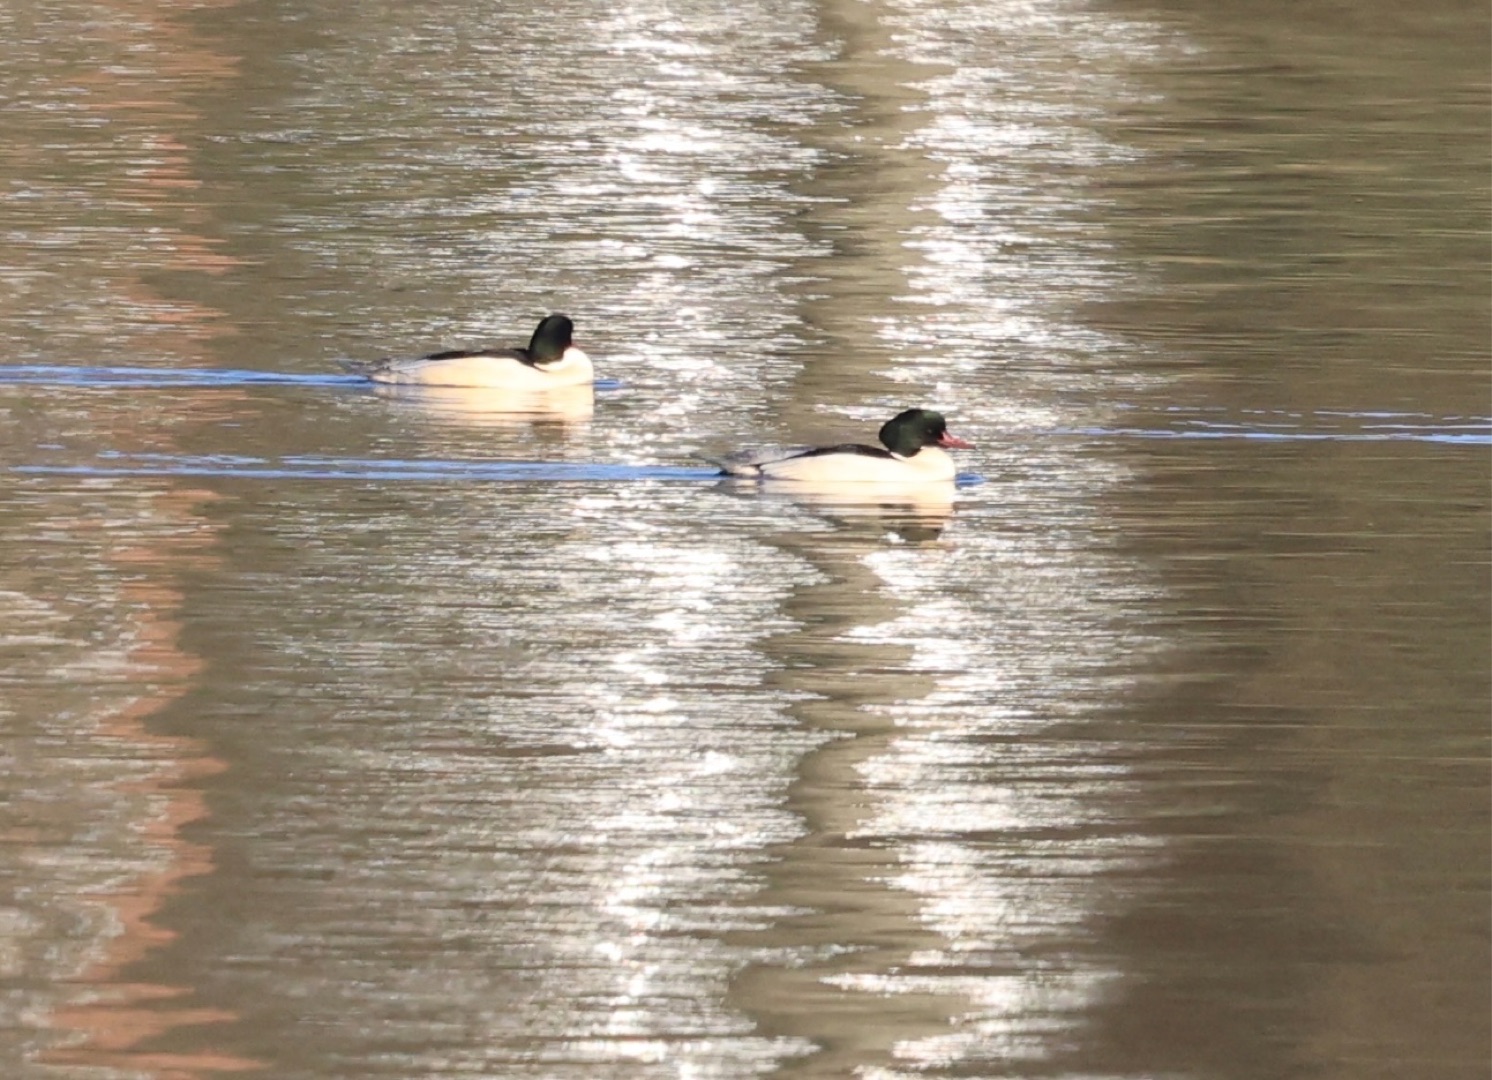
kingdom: Animalia
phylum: Chordata
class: Aves
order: Anseriformes
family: Anatidae
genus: Mergus
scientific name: Mergus merganser
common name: Stor skallesluger
